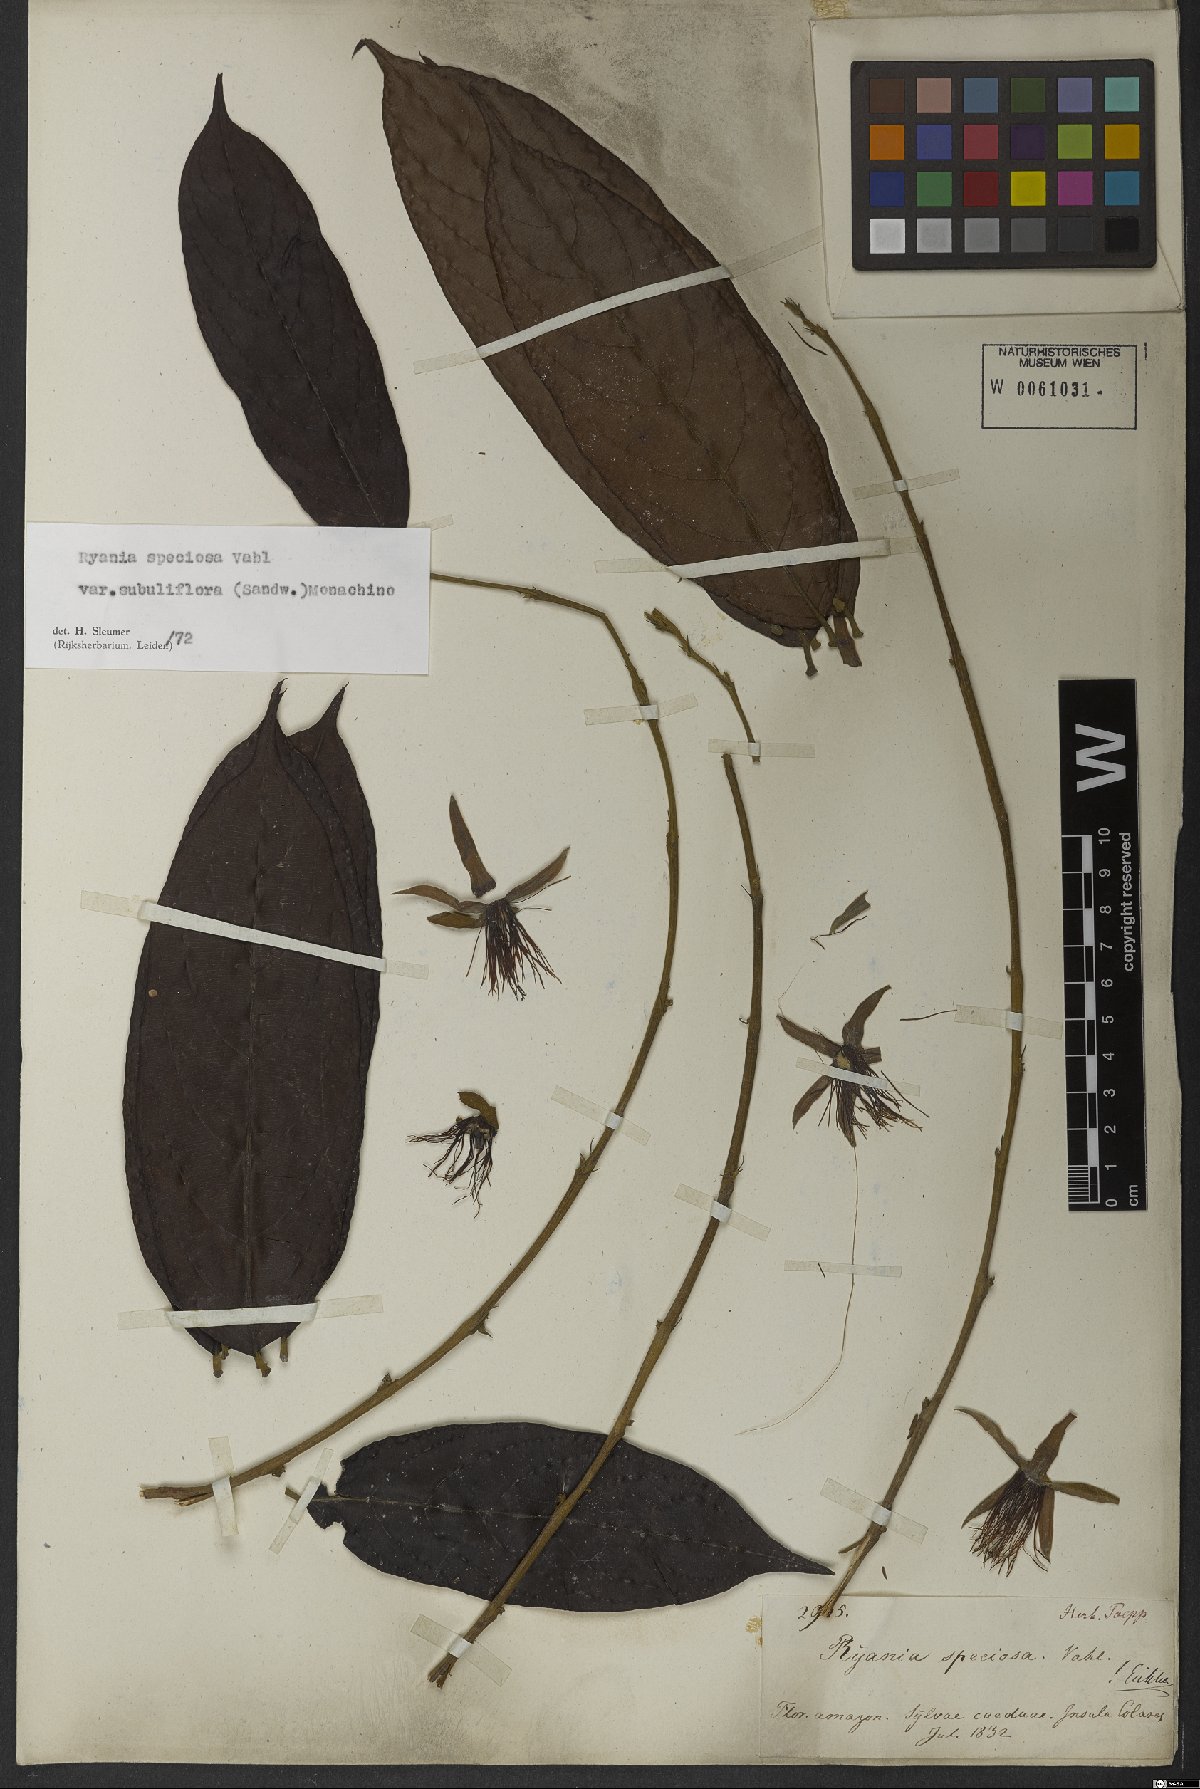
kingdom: Plantae
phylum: Tracheophyta
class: Magnoliopsida
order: Malpighiales
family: Salicaceae
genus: Ryania
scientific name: Ryania speciosa
